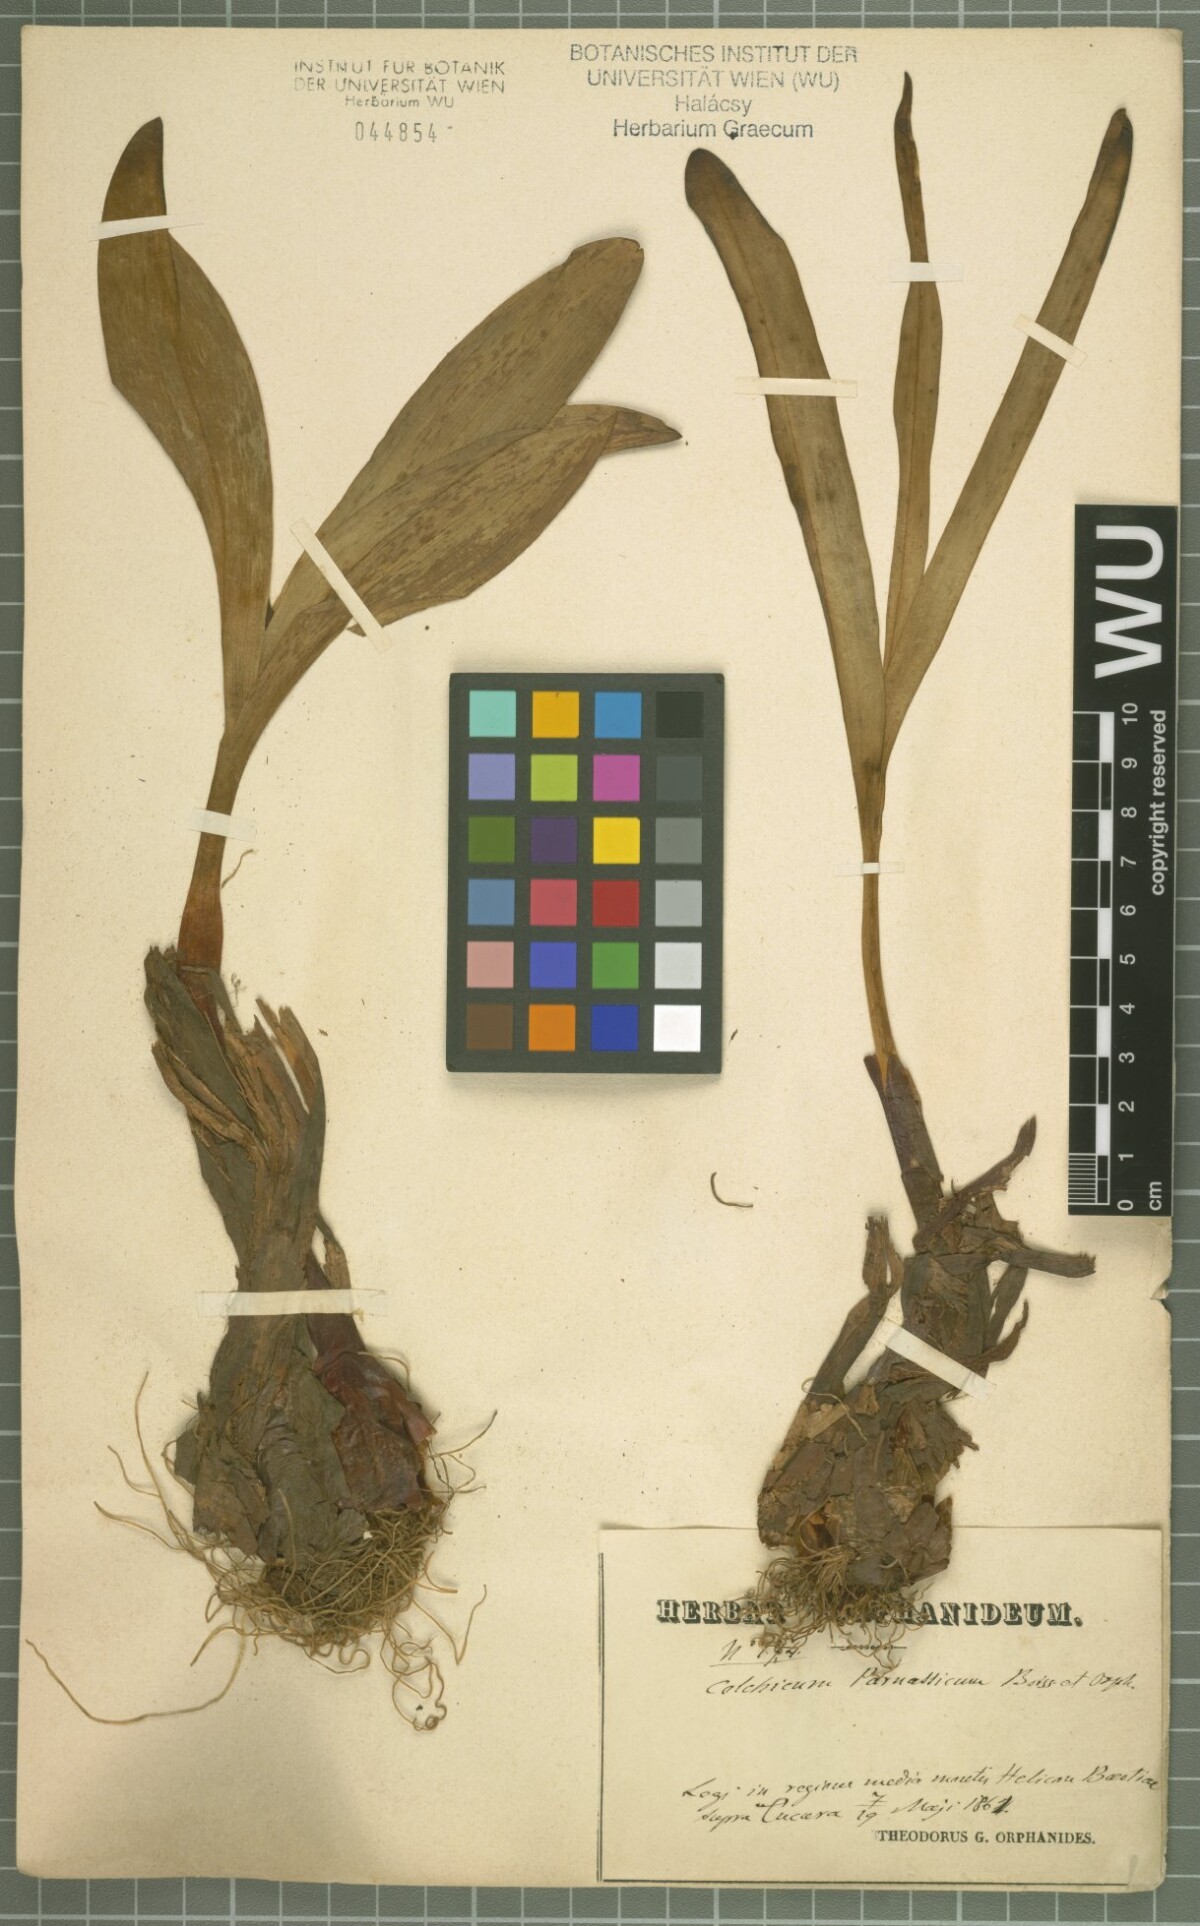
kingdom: Plantae
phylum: Tracheophyta
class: Liliopsida
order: Liliales
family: Colchicaceae
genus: Colchicum
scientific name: Colchicum parnassicum
